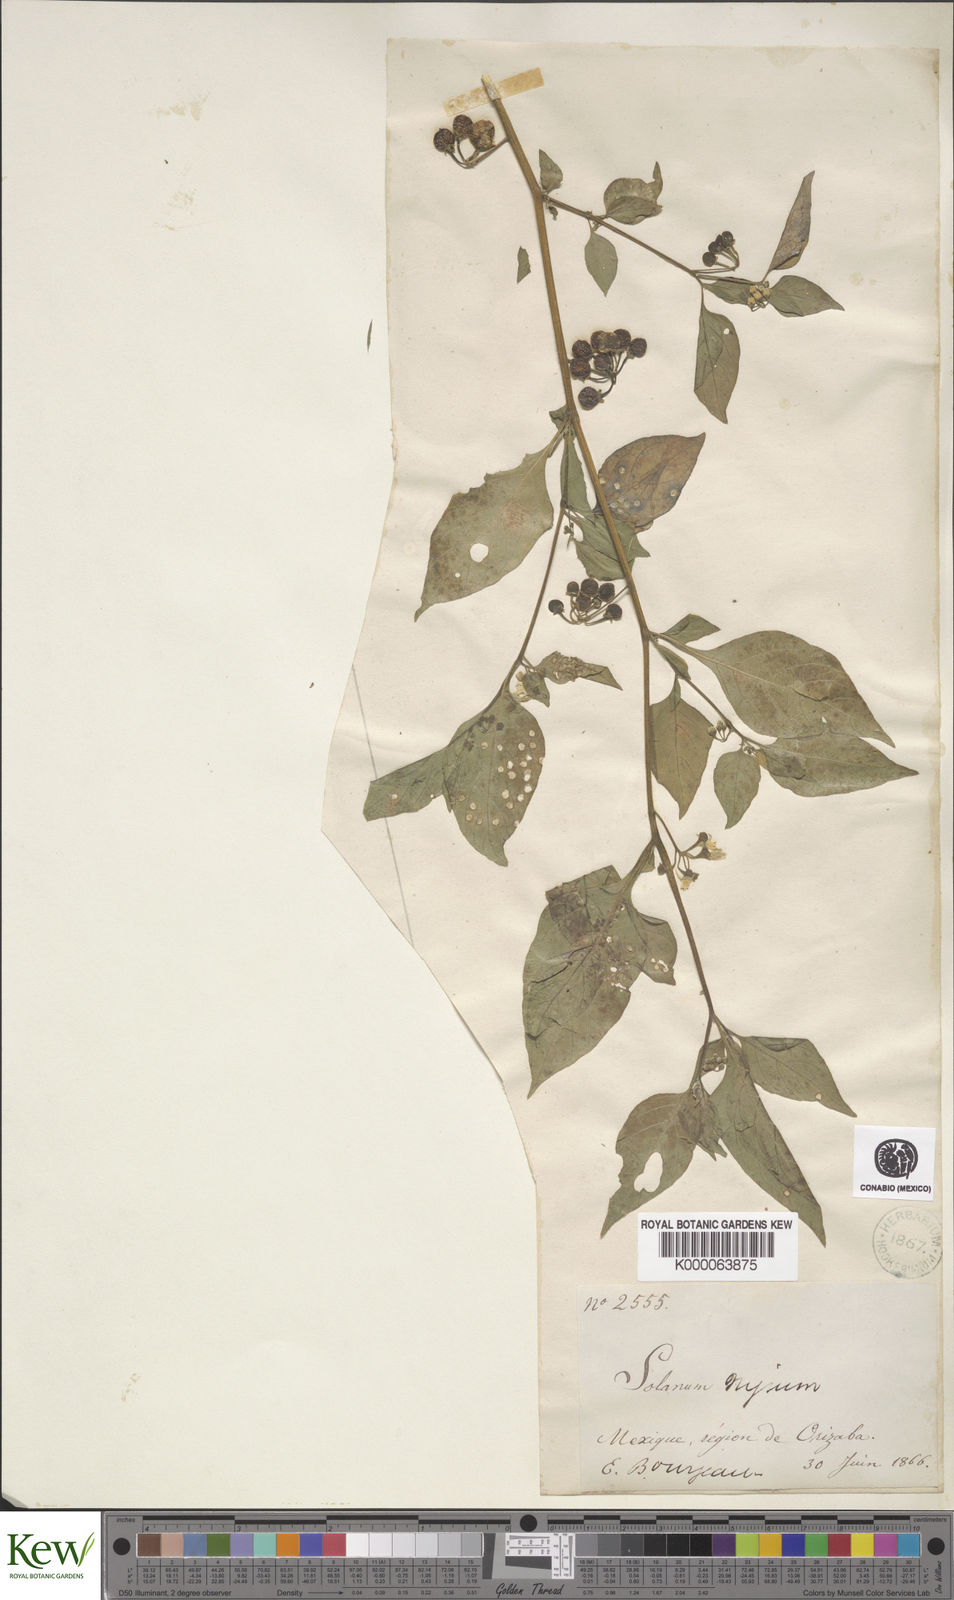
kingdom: Plantae
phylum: Tracheophyta
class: Magnoliopsida
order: Solanales
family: Solanaceae
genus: Solanum
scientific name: Solanum nigrum
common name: Black nightshade
